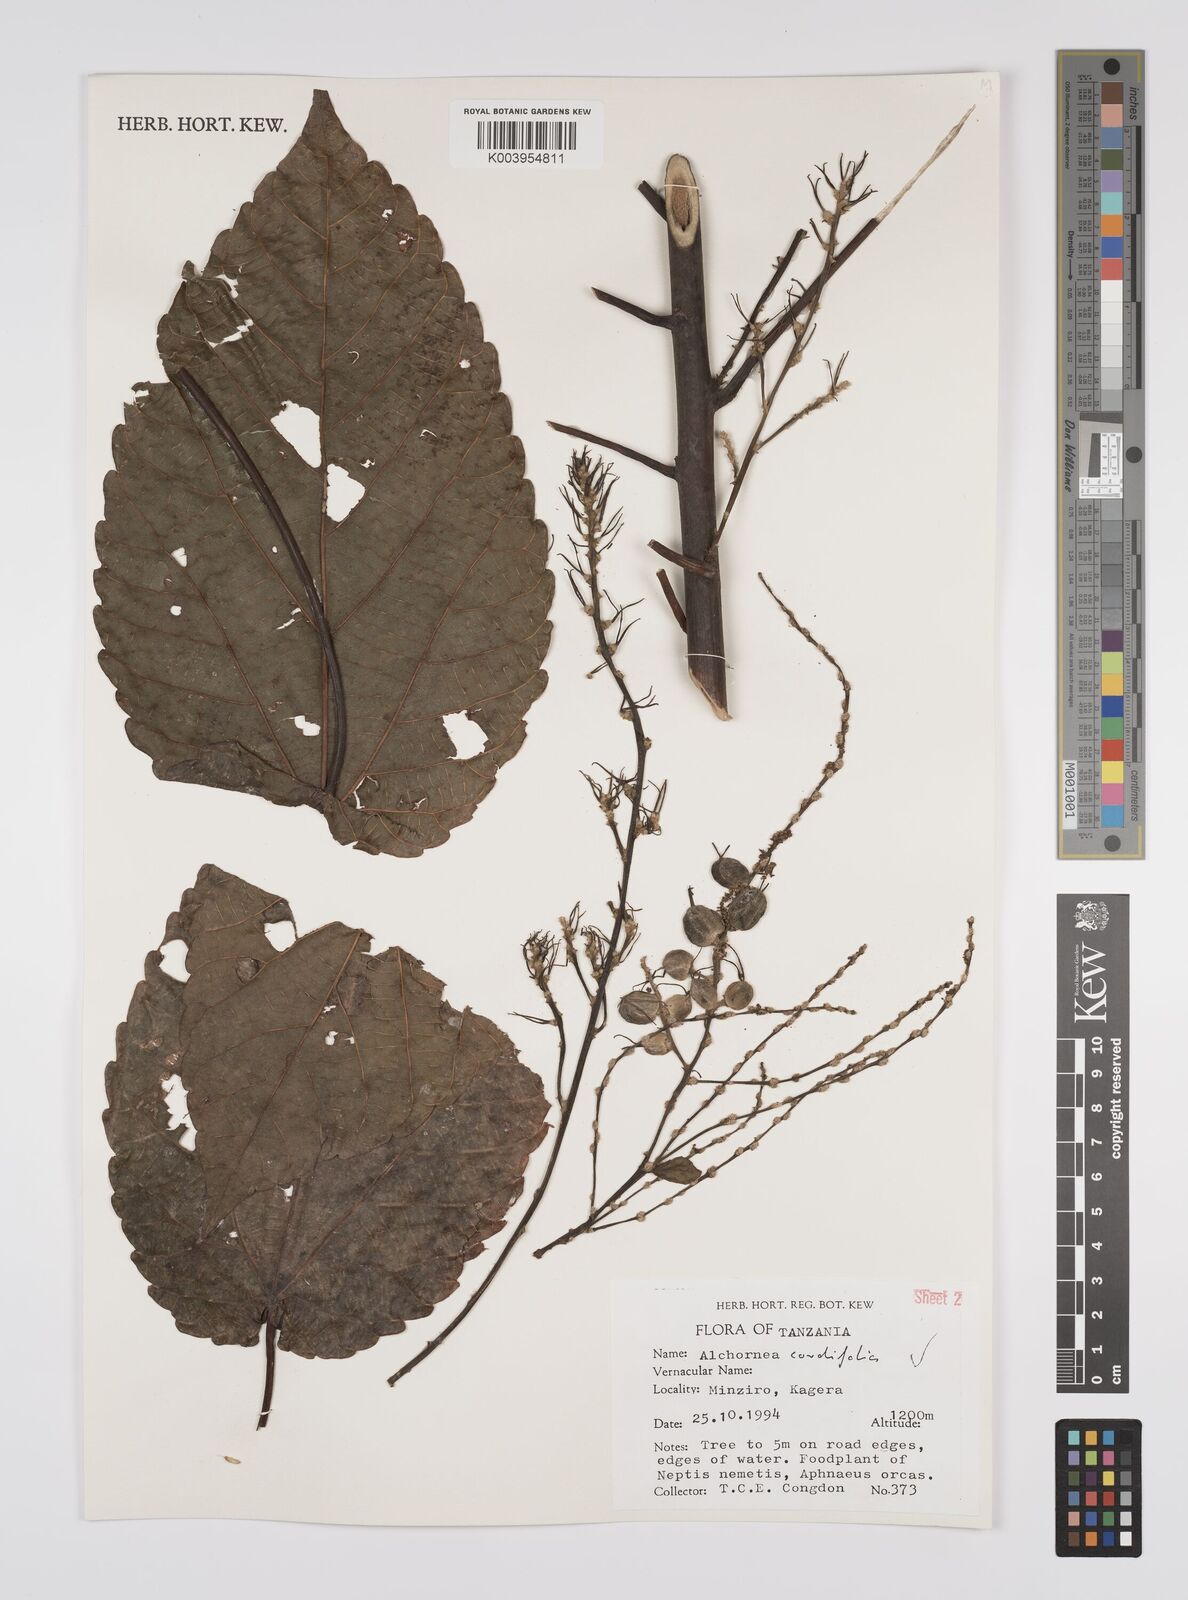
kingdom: Plantae
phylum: Tracheophyta
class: Magnoliopsida
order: Malpighiales
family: Euphorbiaceae
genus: Alchornea
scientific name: Alchornea cordifolia
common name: Christmasbush
